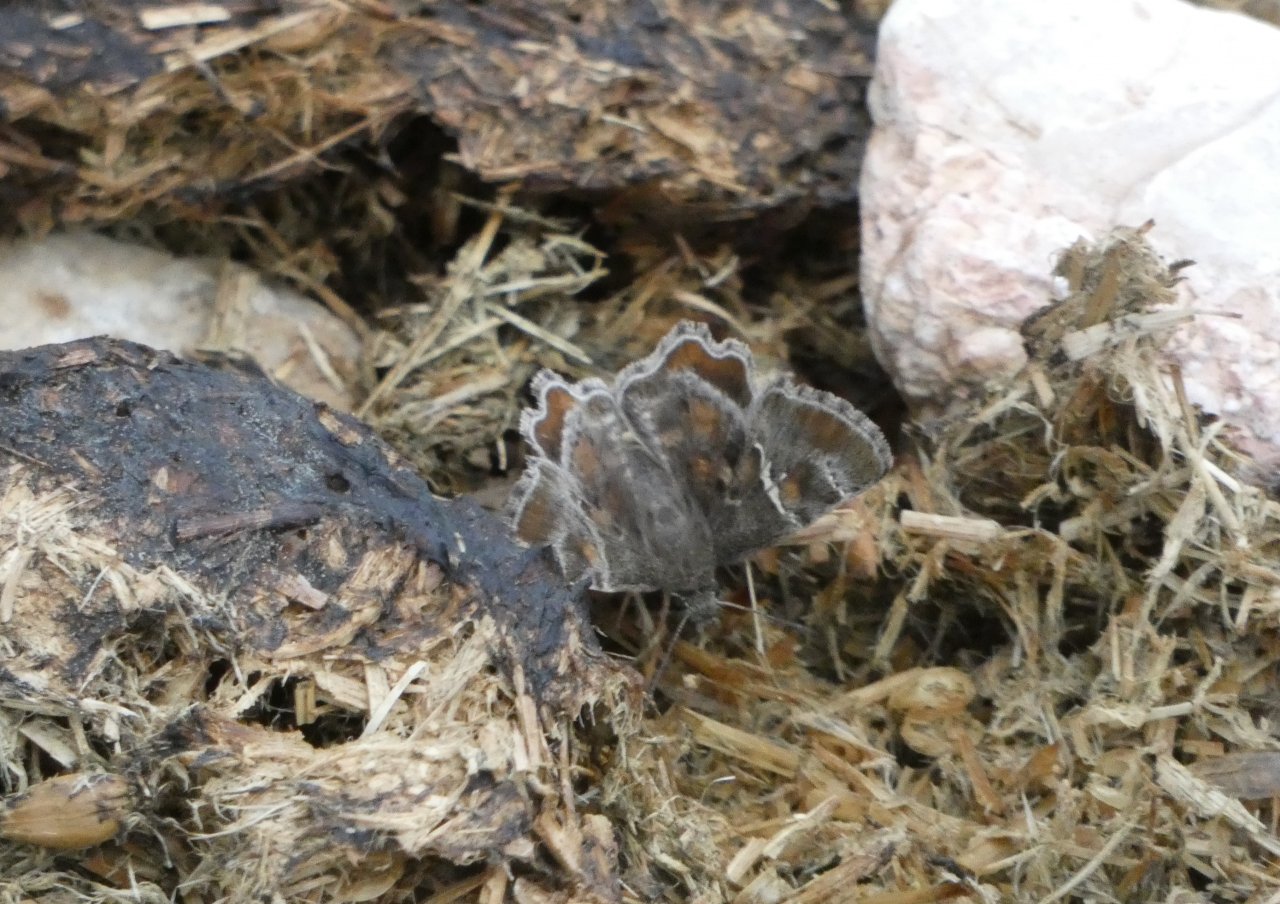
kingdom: Animalia
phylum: Arthropoda
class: Insecta
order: Lepidoptera
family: Hesperiidae
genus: Systasea
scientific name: Systasea pulverulenta
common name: Texas Powdered-Skipper
